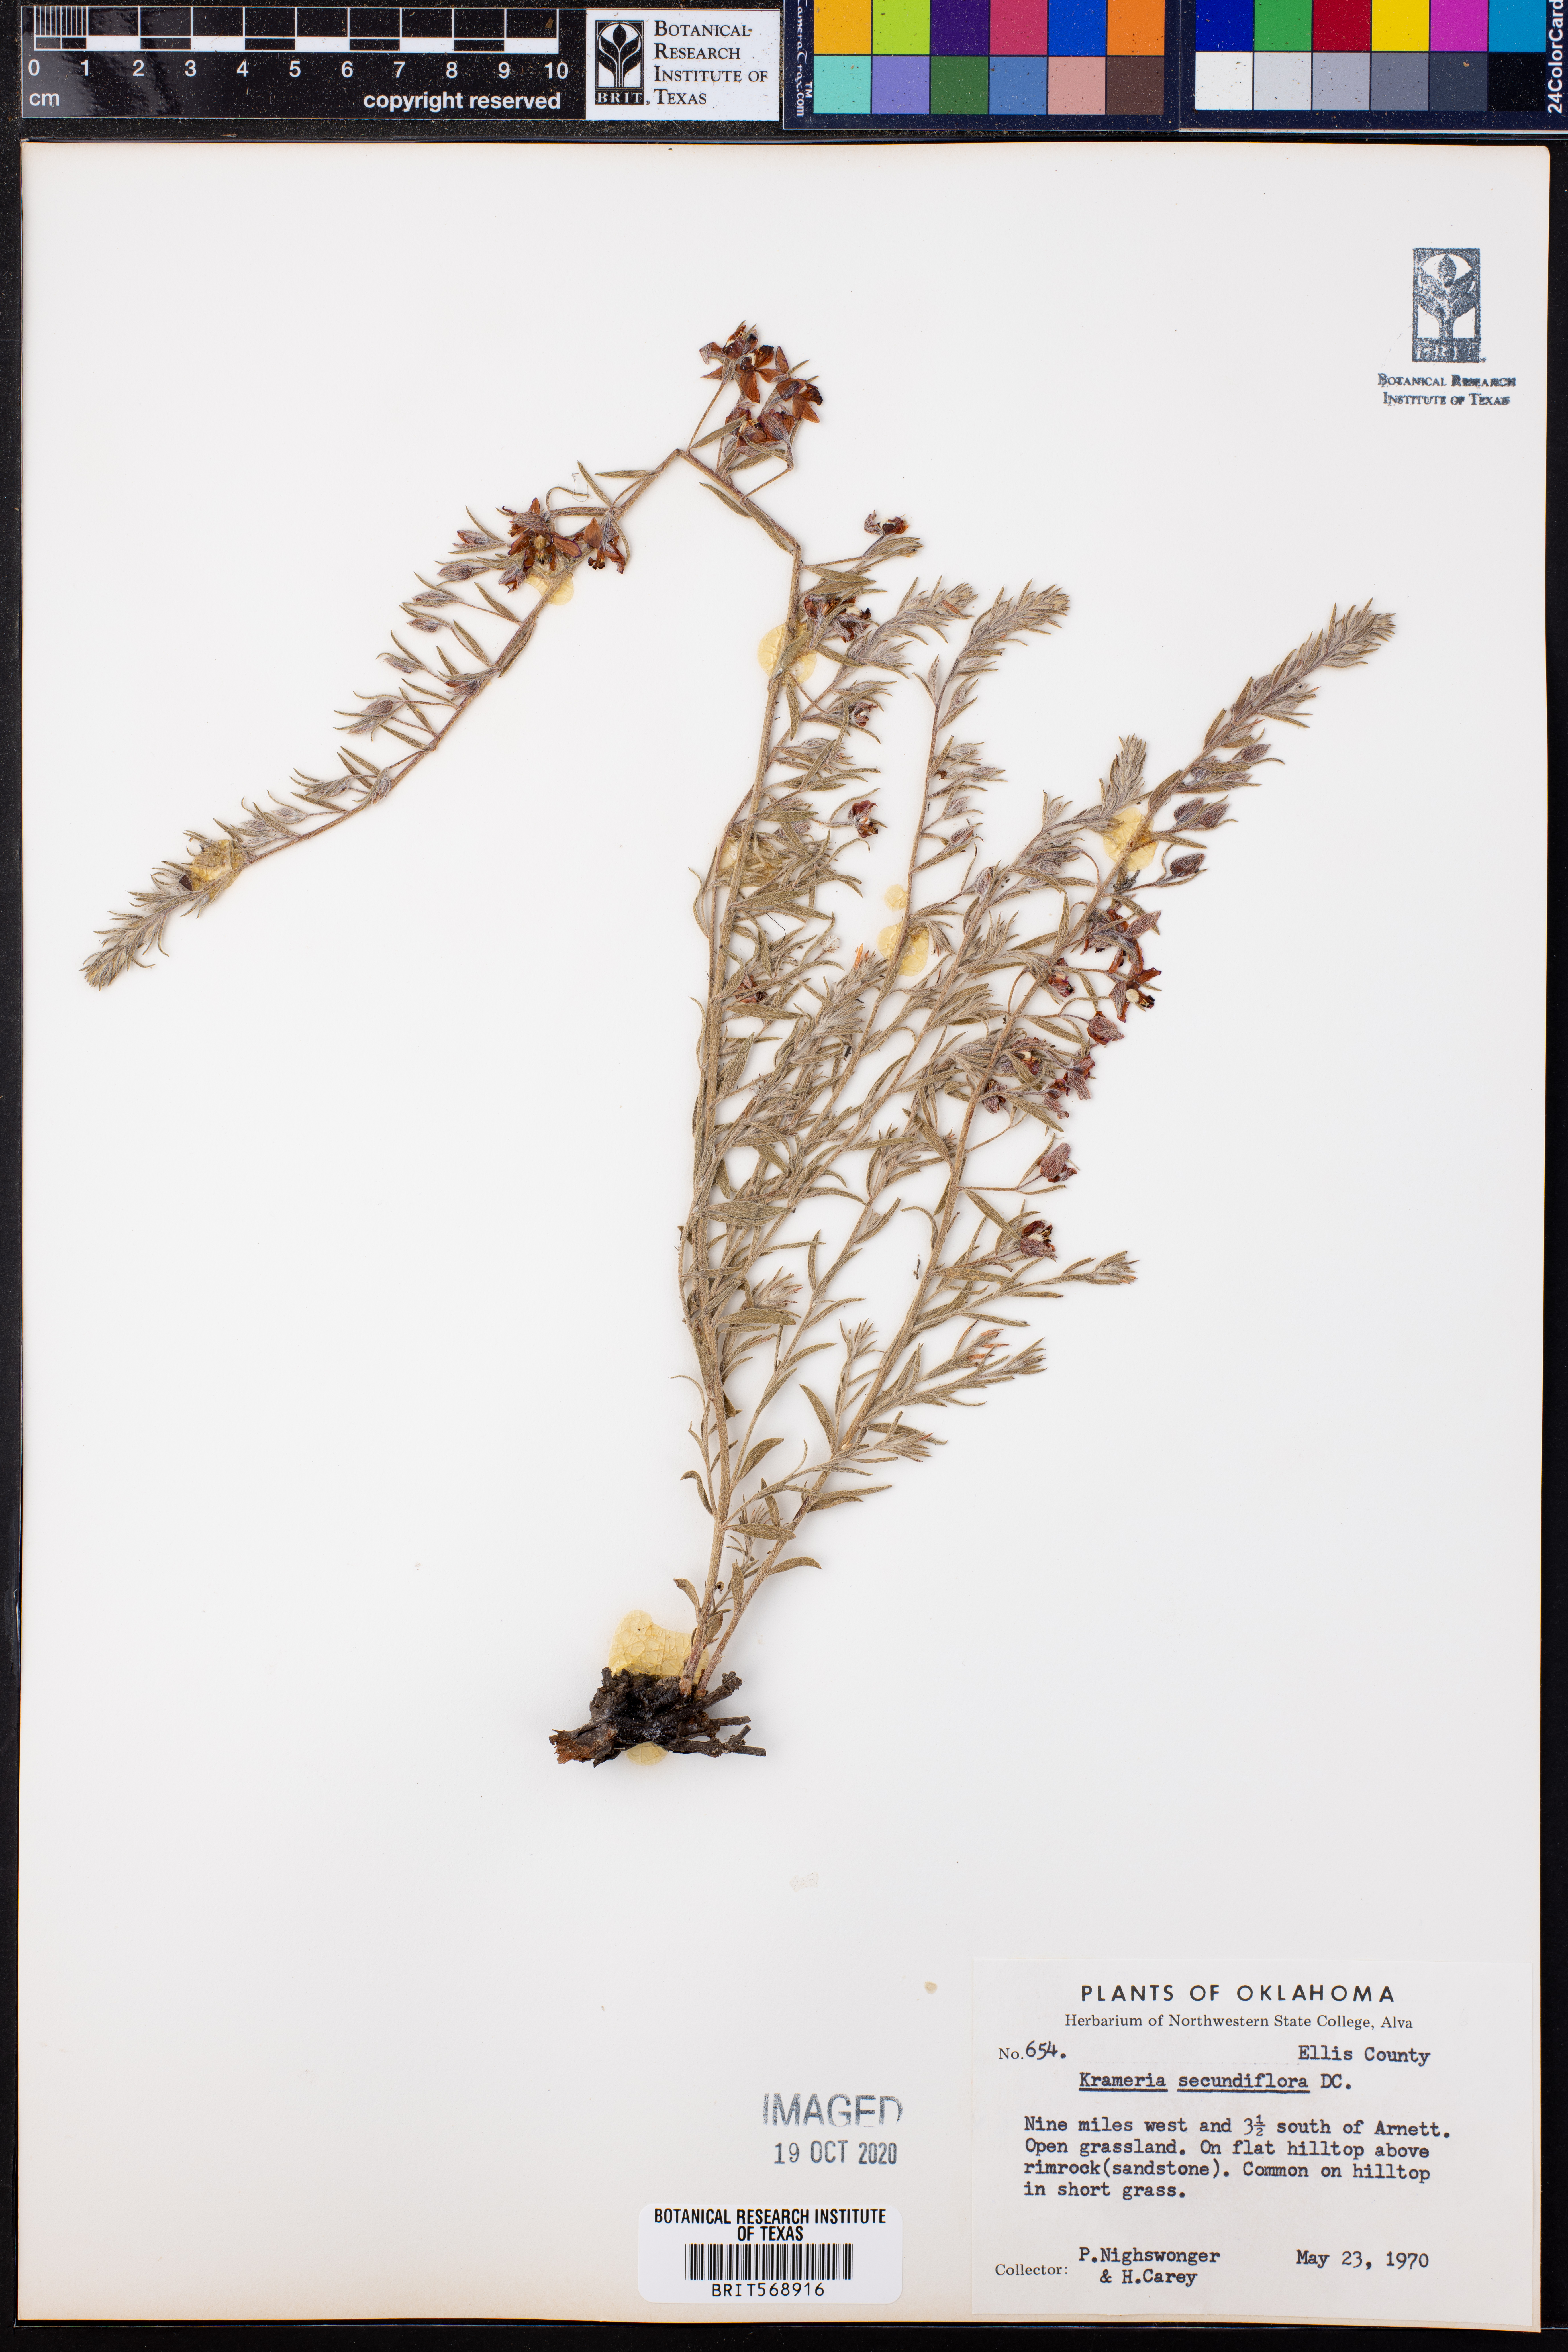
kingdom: Plantae
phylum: Tracheophyta
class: Magnoliopsida
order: Zygophyllales
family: Krameriaceae
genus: Krameria
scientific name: Krameria secundiflora
